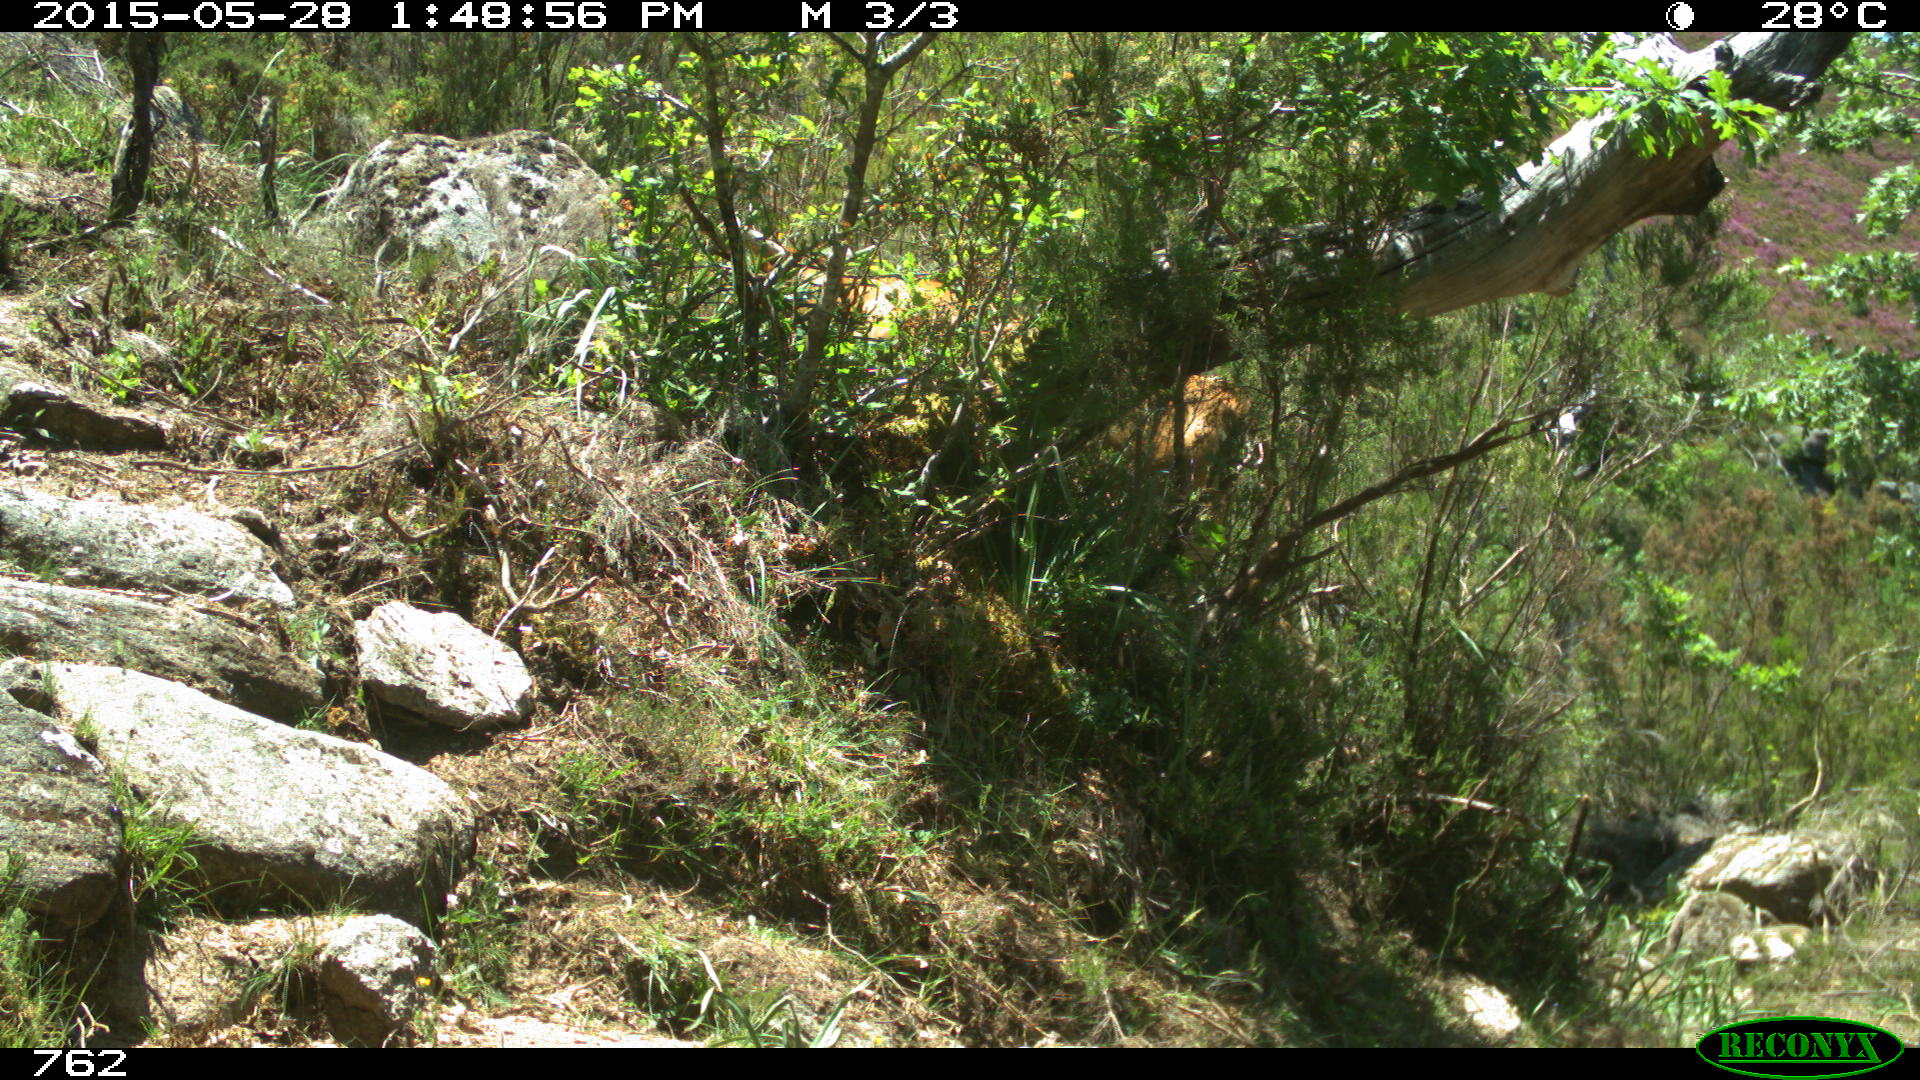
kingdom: Animalia
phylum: Chordata
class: Mammalia
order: Artiodactyla
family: Bovidae
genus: Bos
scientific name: Bos taurus
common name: Domesticated cattle
